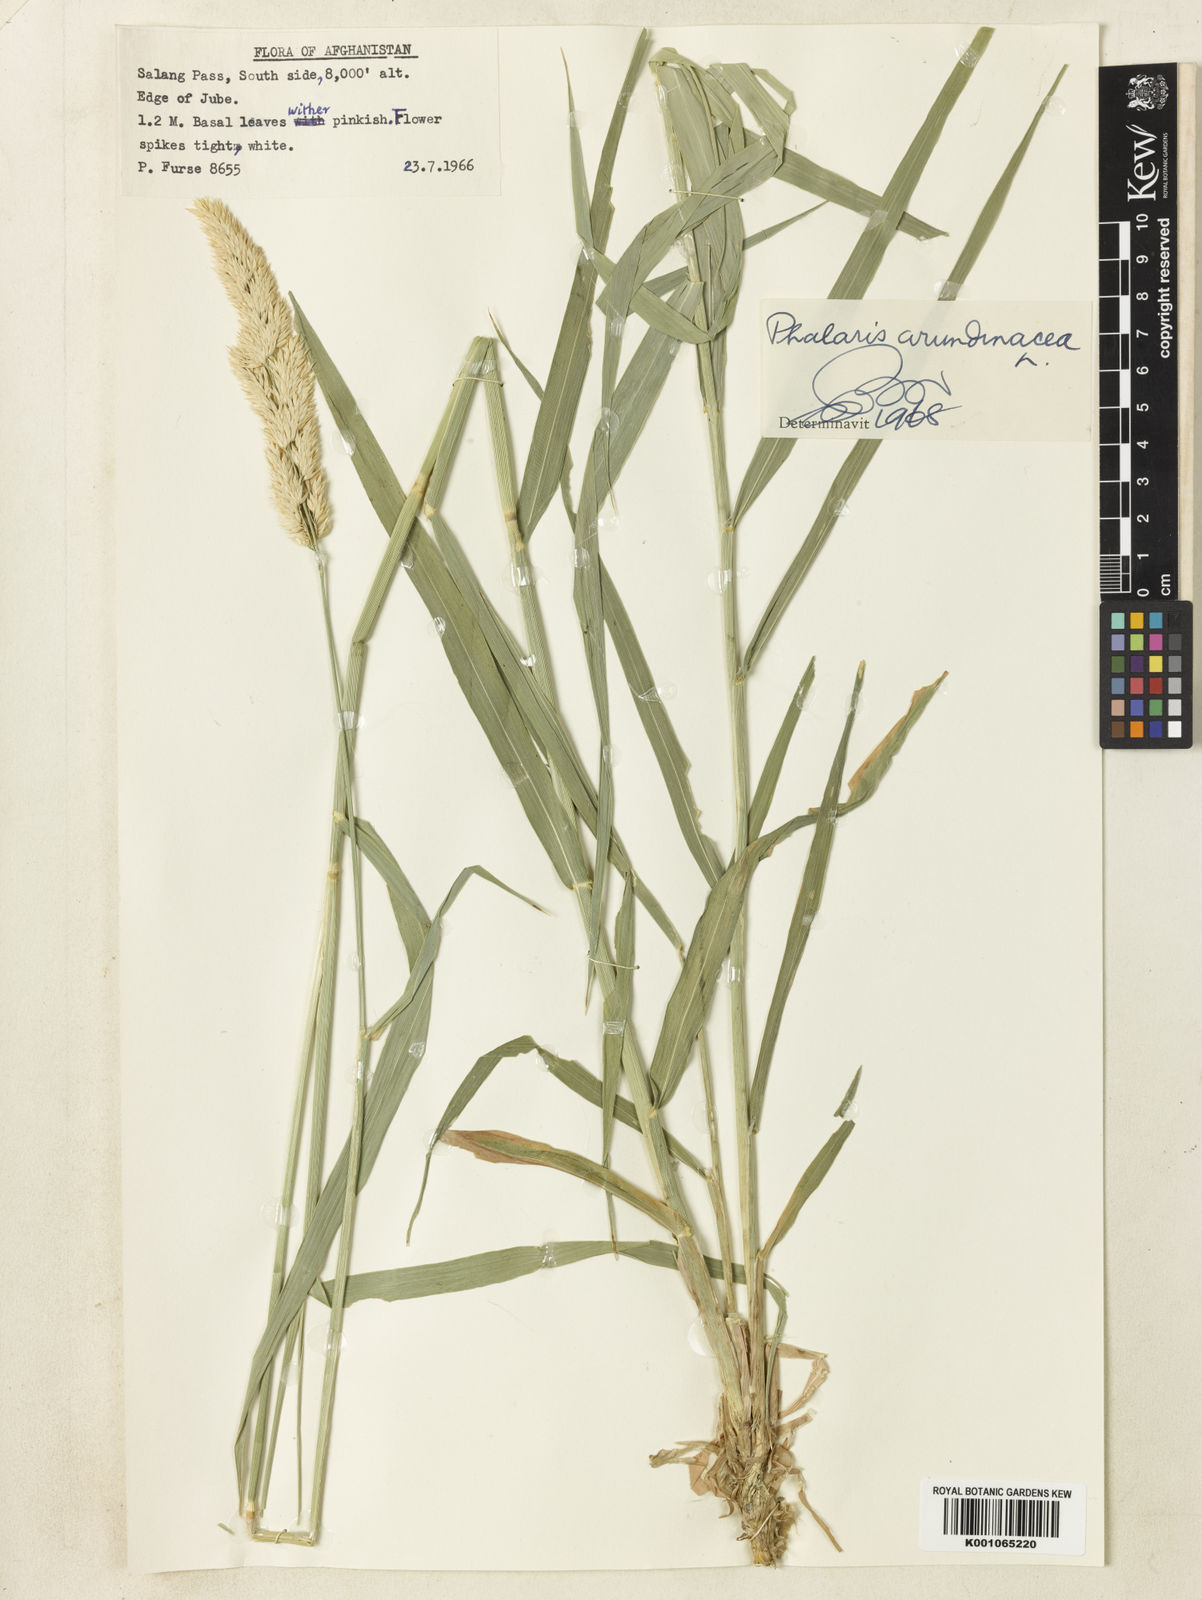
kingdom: Plantae
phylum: Tracheophyta
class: Liliopsida
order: Poales
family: Poaceae
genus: Phalaris
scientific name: Phalaris arundinacea
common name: Reed canary-grass
